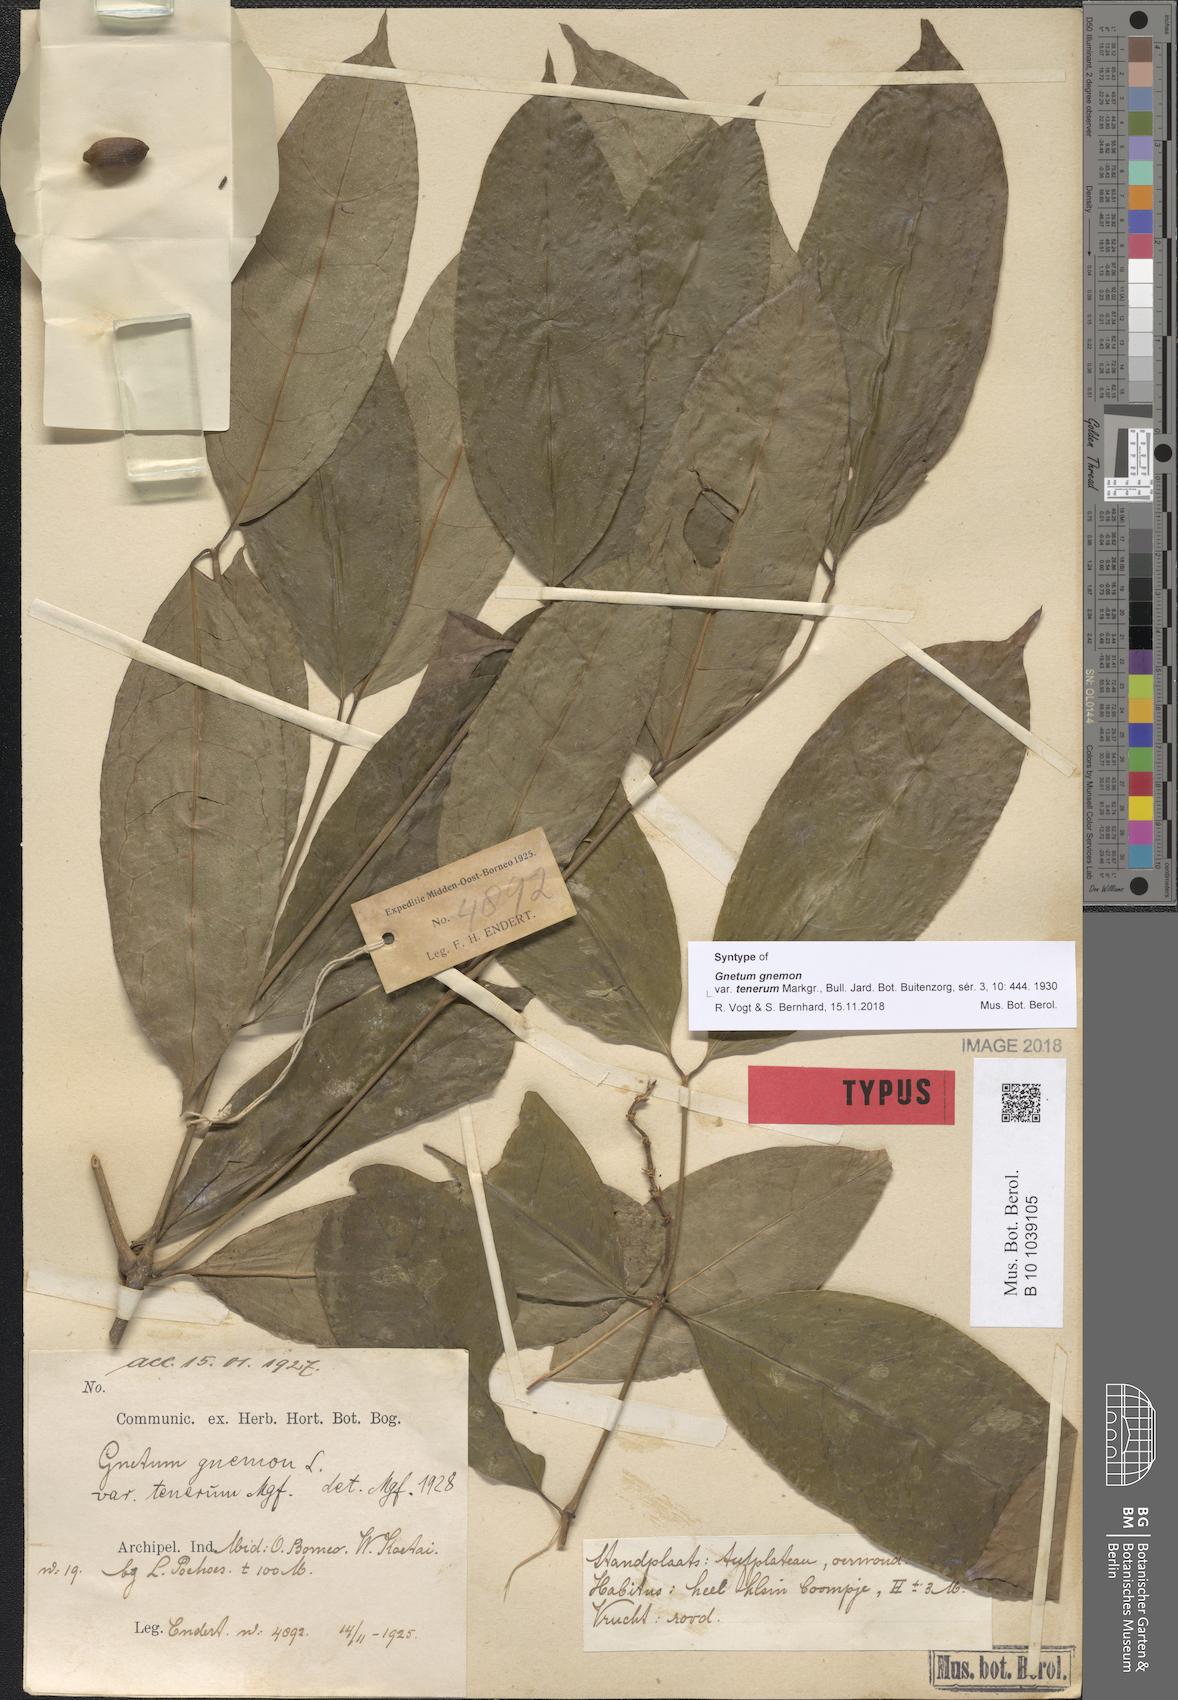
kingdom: Plantae
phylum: Tracheophyta
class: Gnetopsida
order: Gnetales
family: Gnetaceae
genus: Gnetum
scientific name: Gnetum gnemon
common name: Spanish joint-fir
